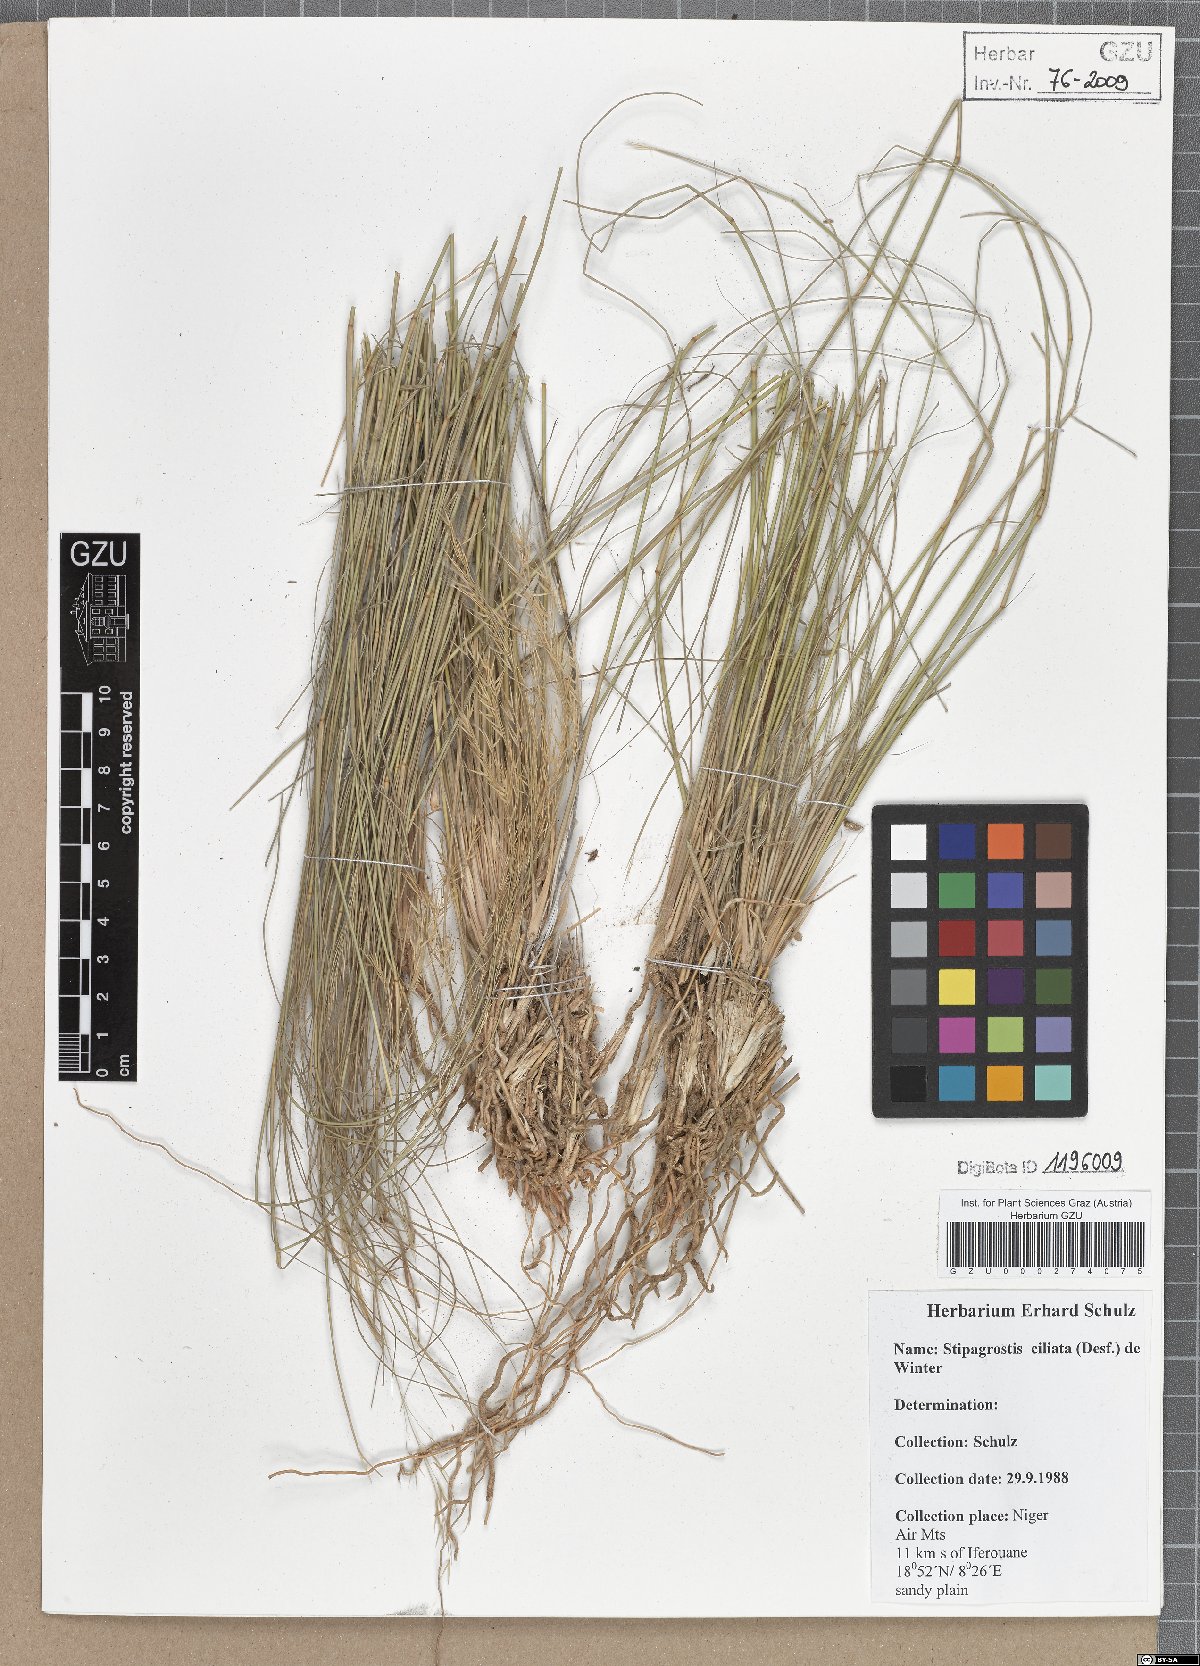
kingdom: Plantae
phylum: Tracheophyta
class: Liliopsida
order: Poales
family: Poaceae
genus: Stipagrostis
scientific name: Stipagrostis ciliata
